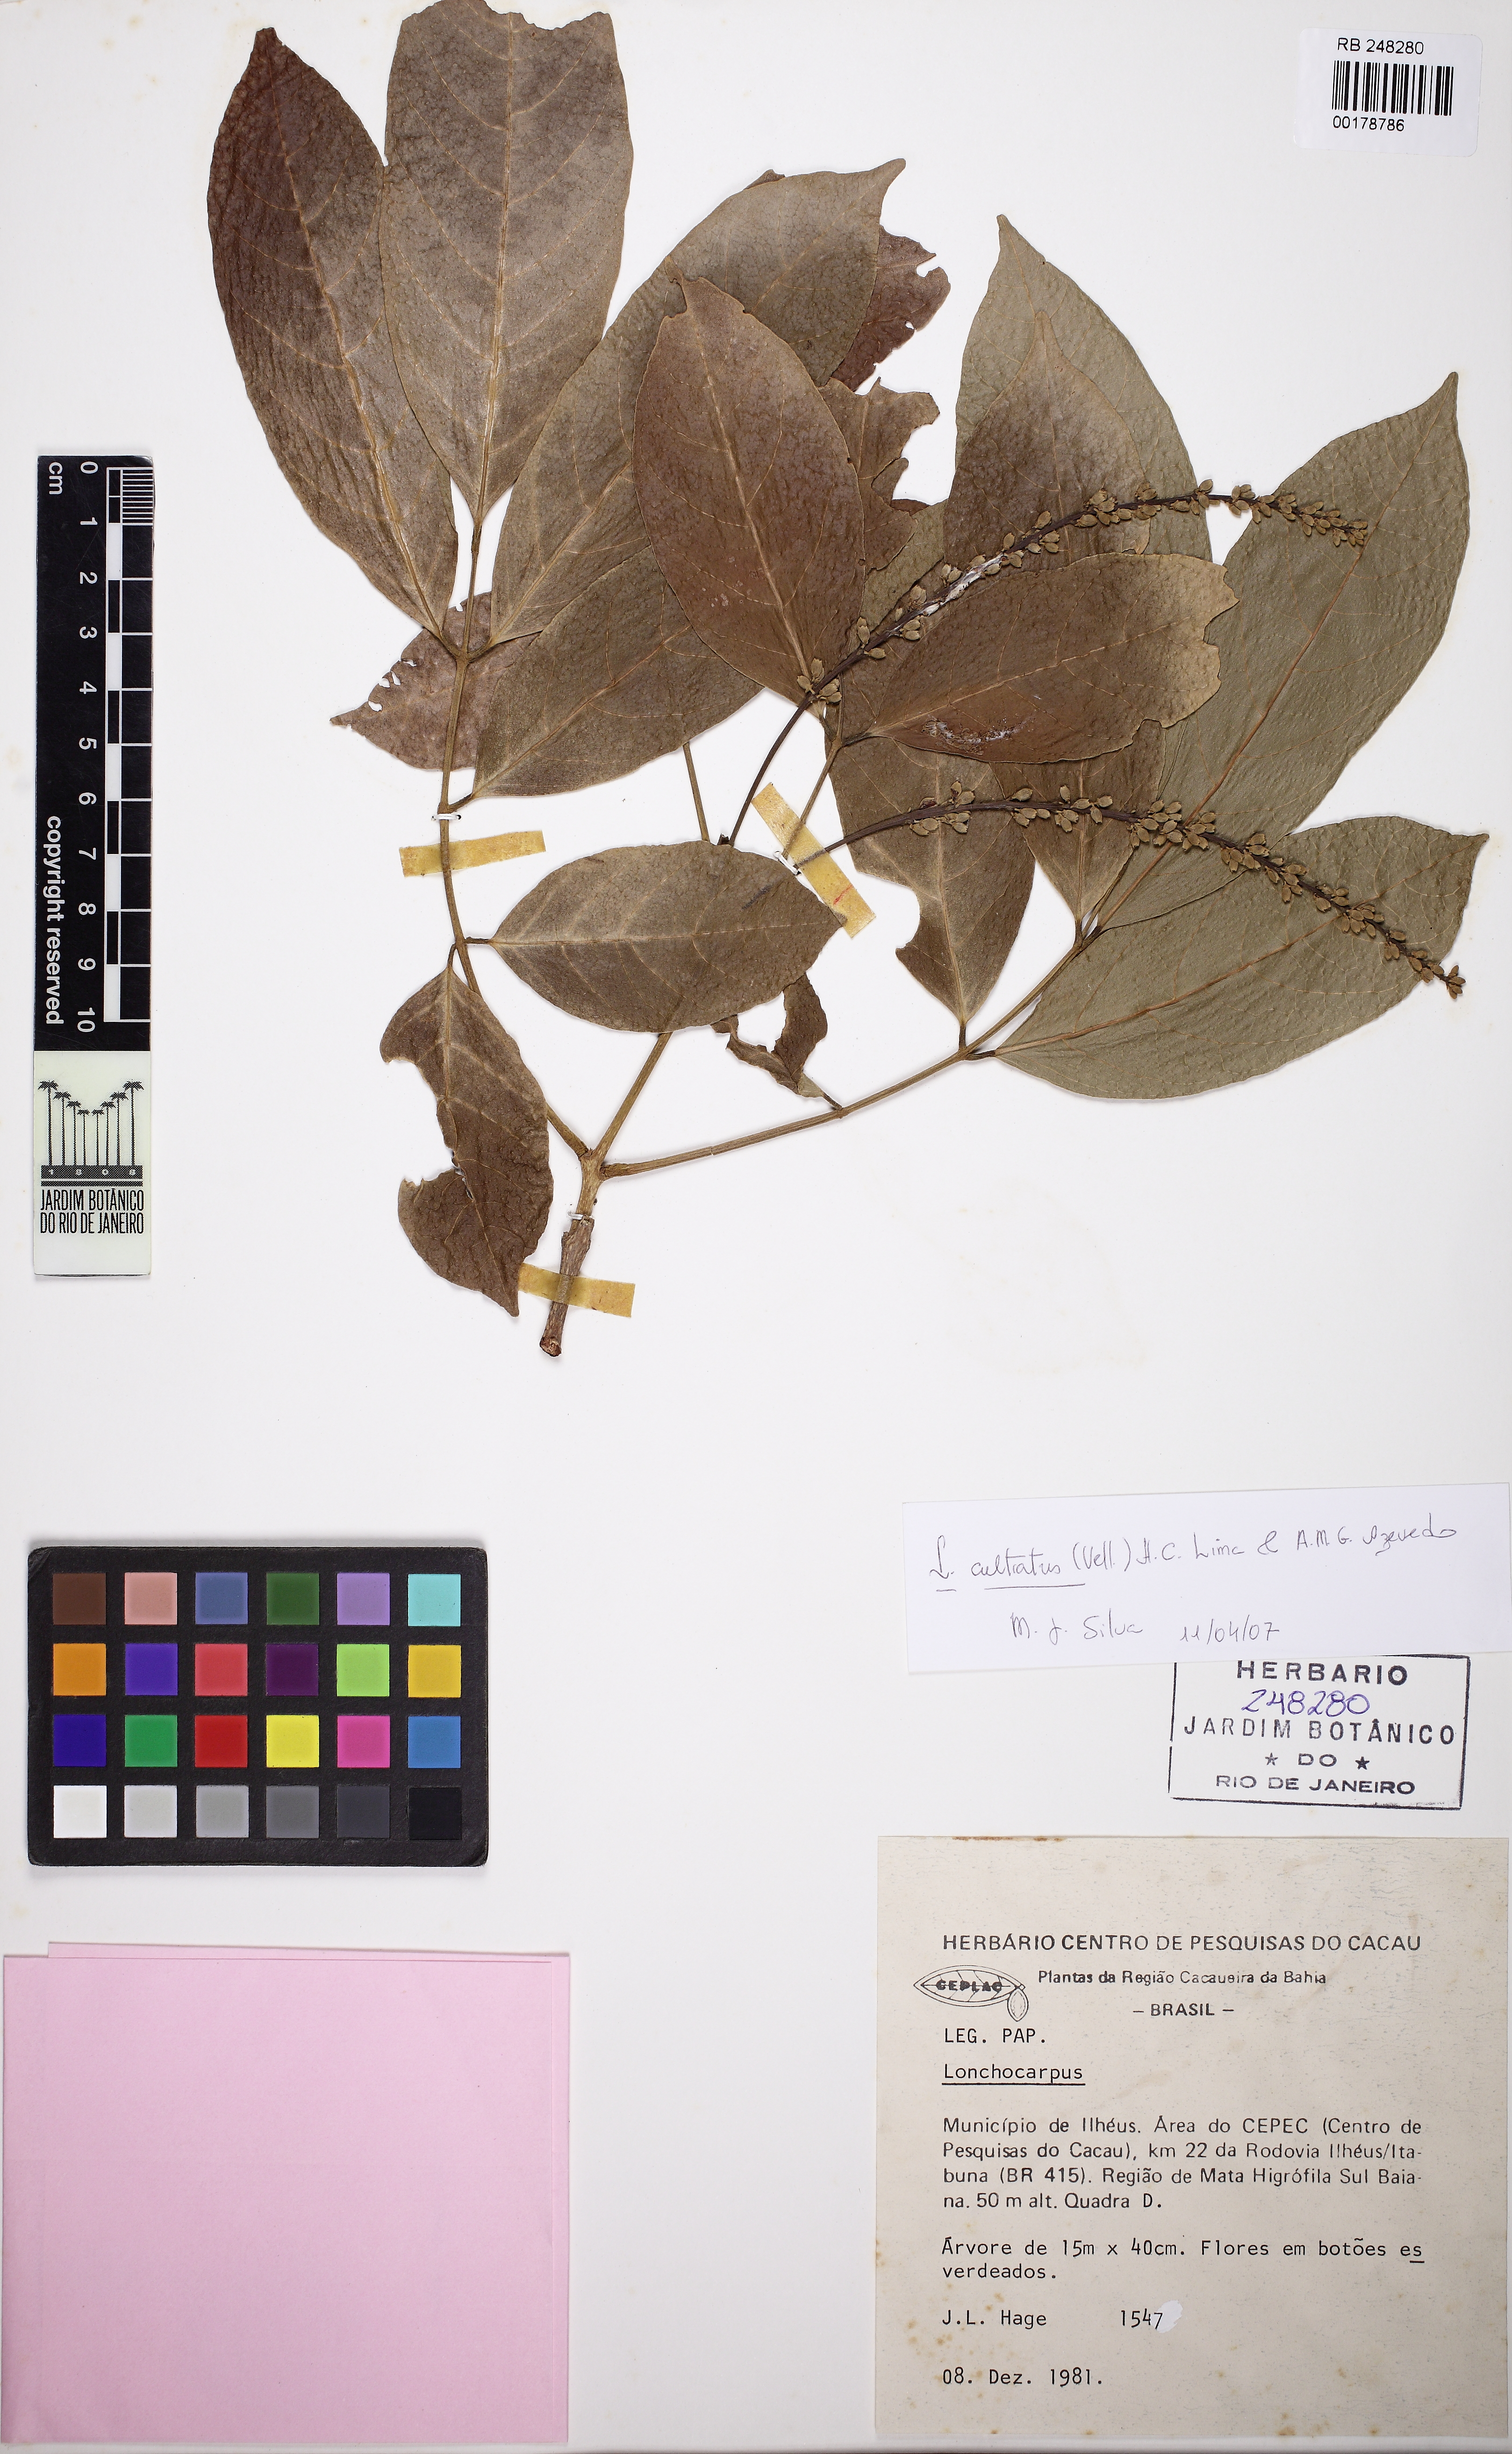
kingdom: Plantae
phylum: Tracheophyta
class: Magnoliopsida
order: Fabales
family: Fabaceae
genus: Lonchocarpus
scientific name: Lonchocarpus cultratus
